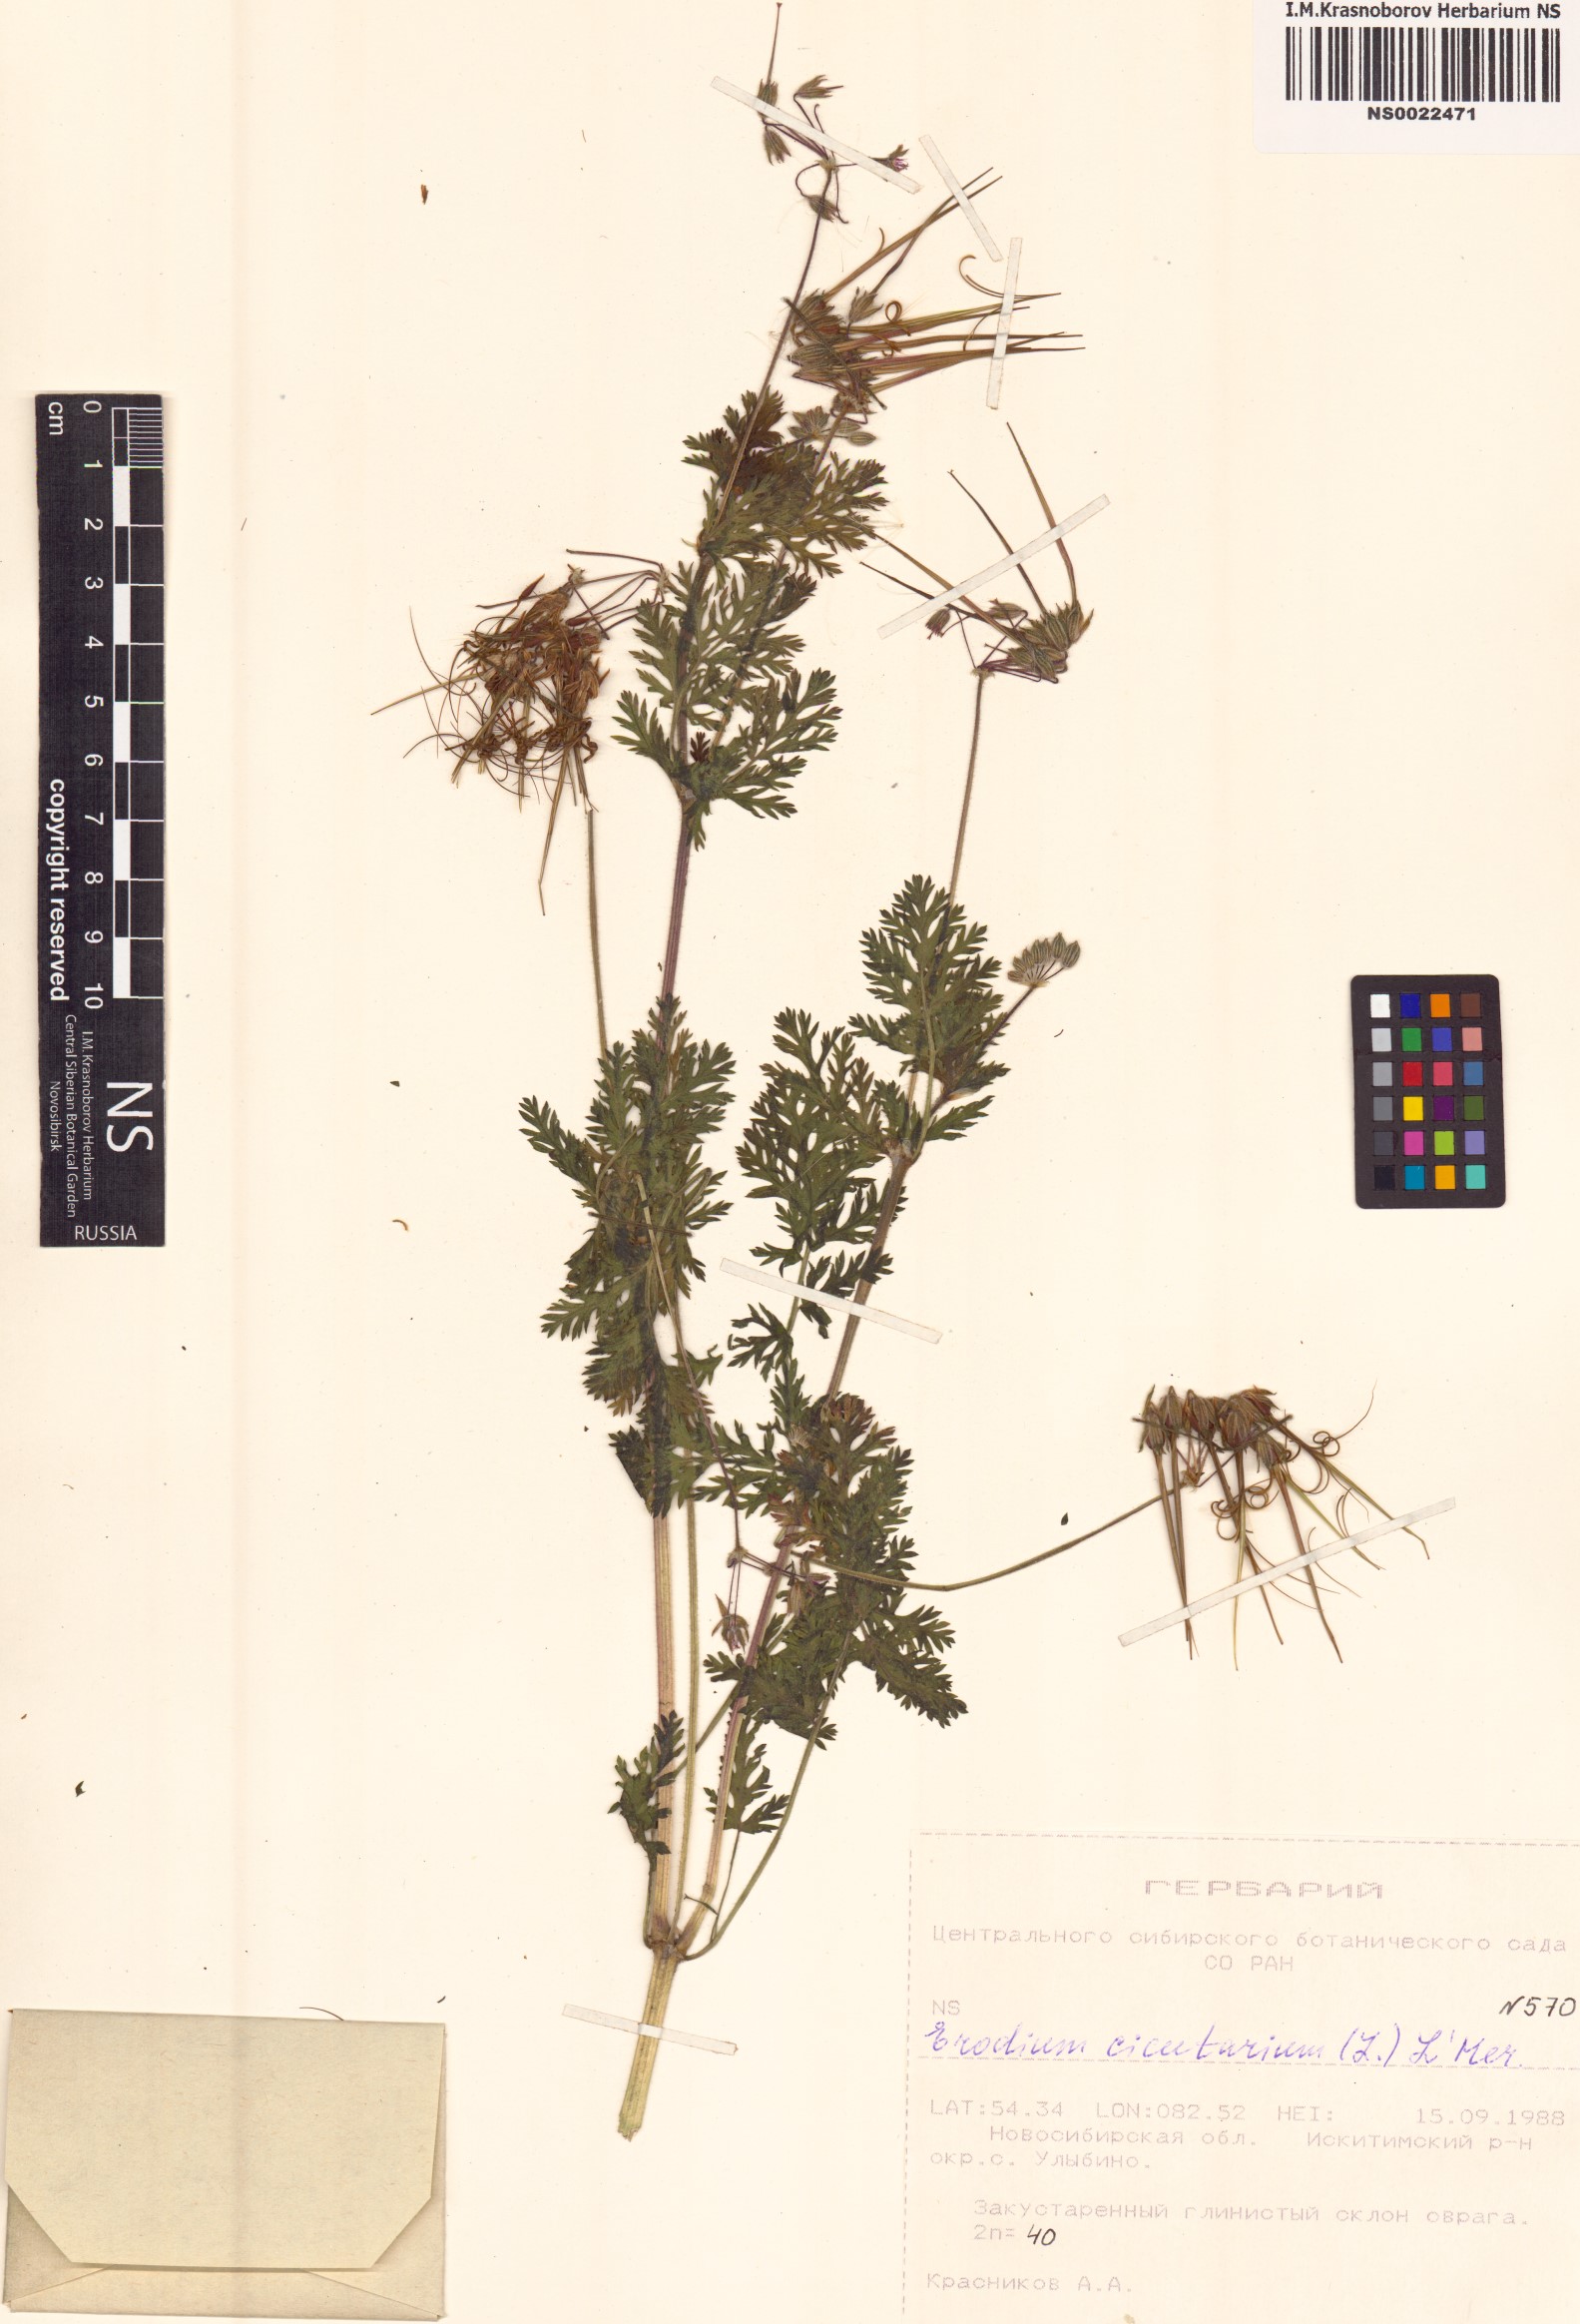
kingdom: Plantae
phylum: Tracheophyta
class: Magnoliopsida
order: Geraniales
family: Geraniaceae
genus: Erodium
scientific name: Erodium cicutarium
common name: Common stork's-bill
